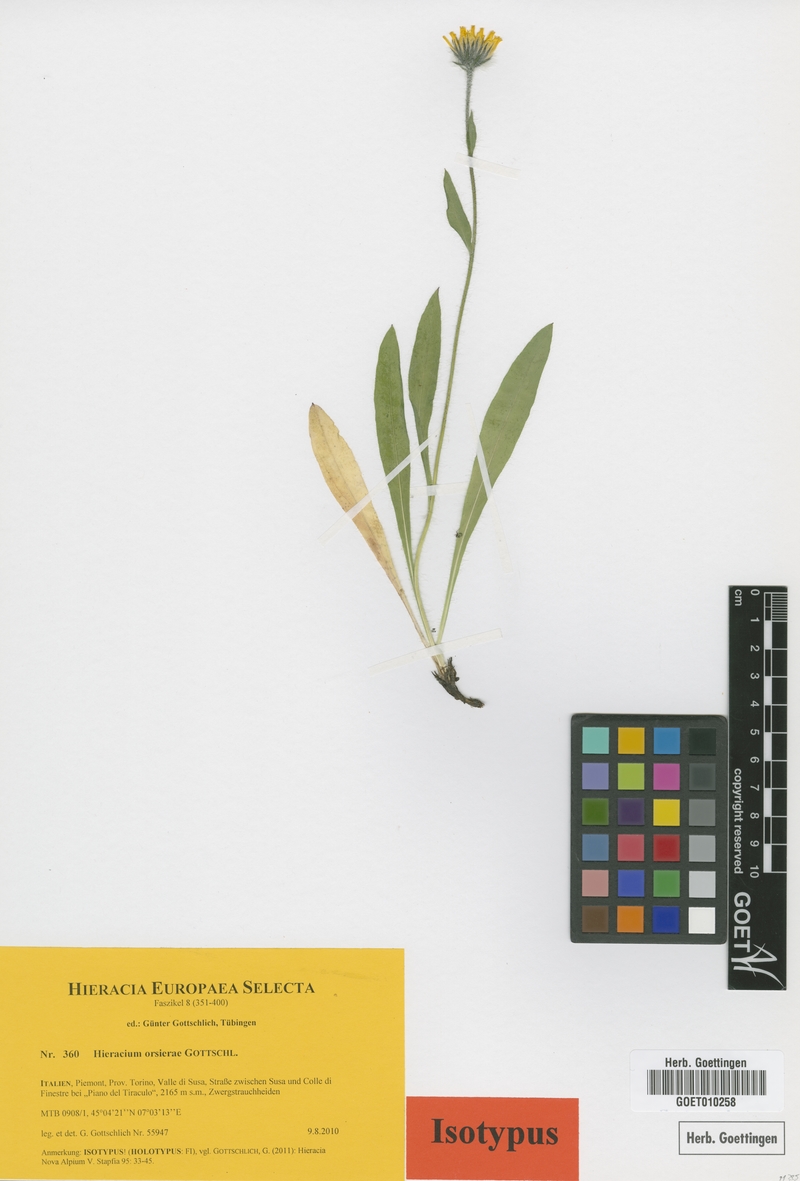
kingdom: Plantae
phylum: Tracheophyta
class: Magnoliopsida
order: Asterales
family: Asteraceae
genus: Hieracium
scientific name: Hieracium orsierae
